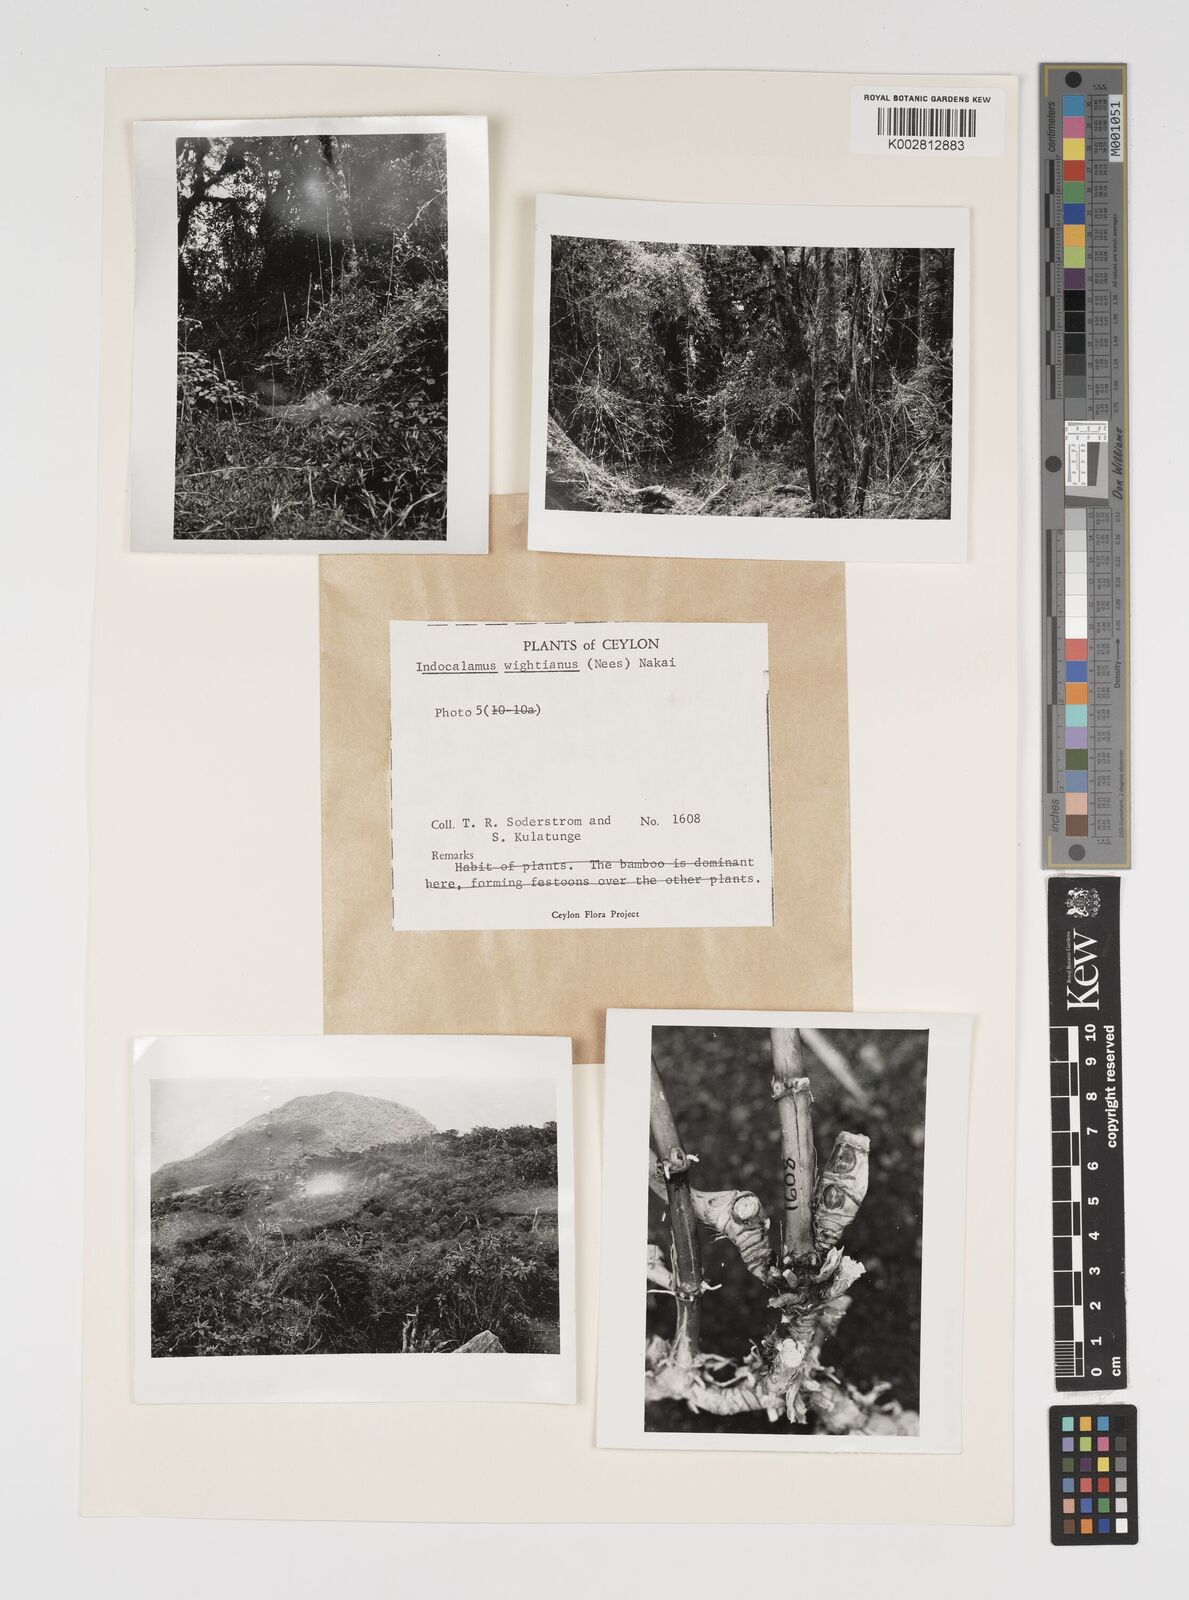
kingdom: Plantae
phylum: Tracheophyta
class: Liliopsida
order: Poales
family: Poaceae
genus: Kuruna
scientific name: Kuruna scandens
